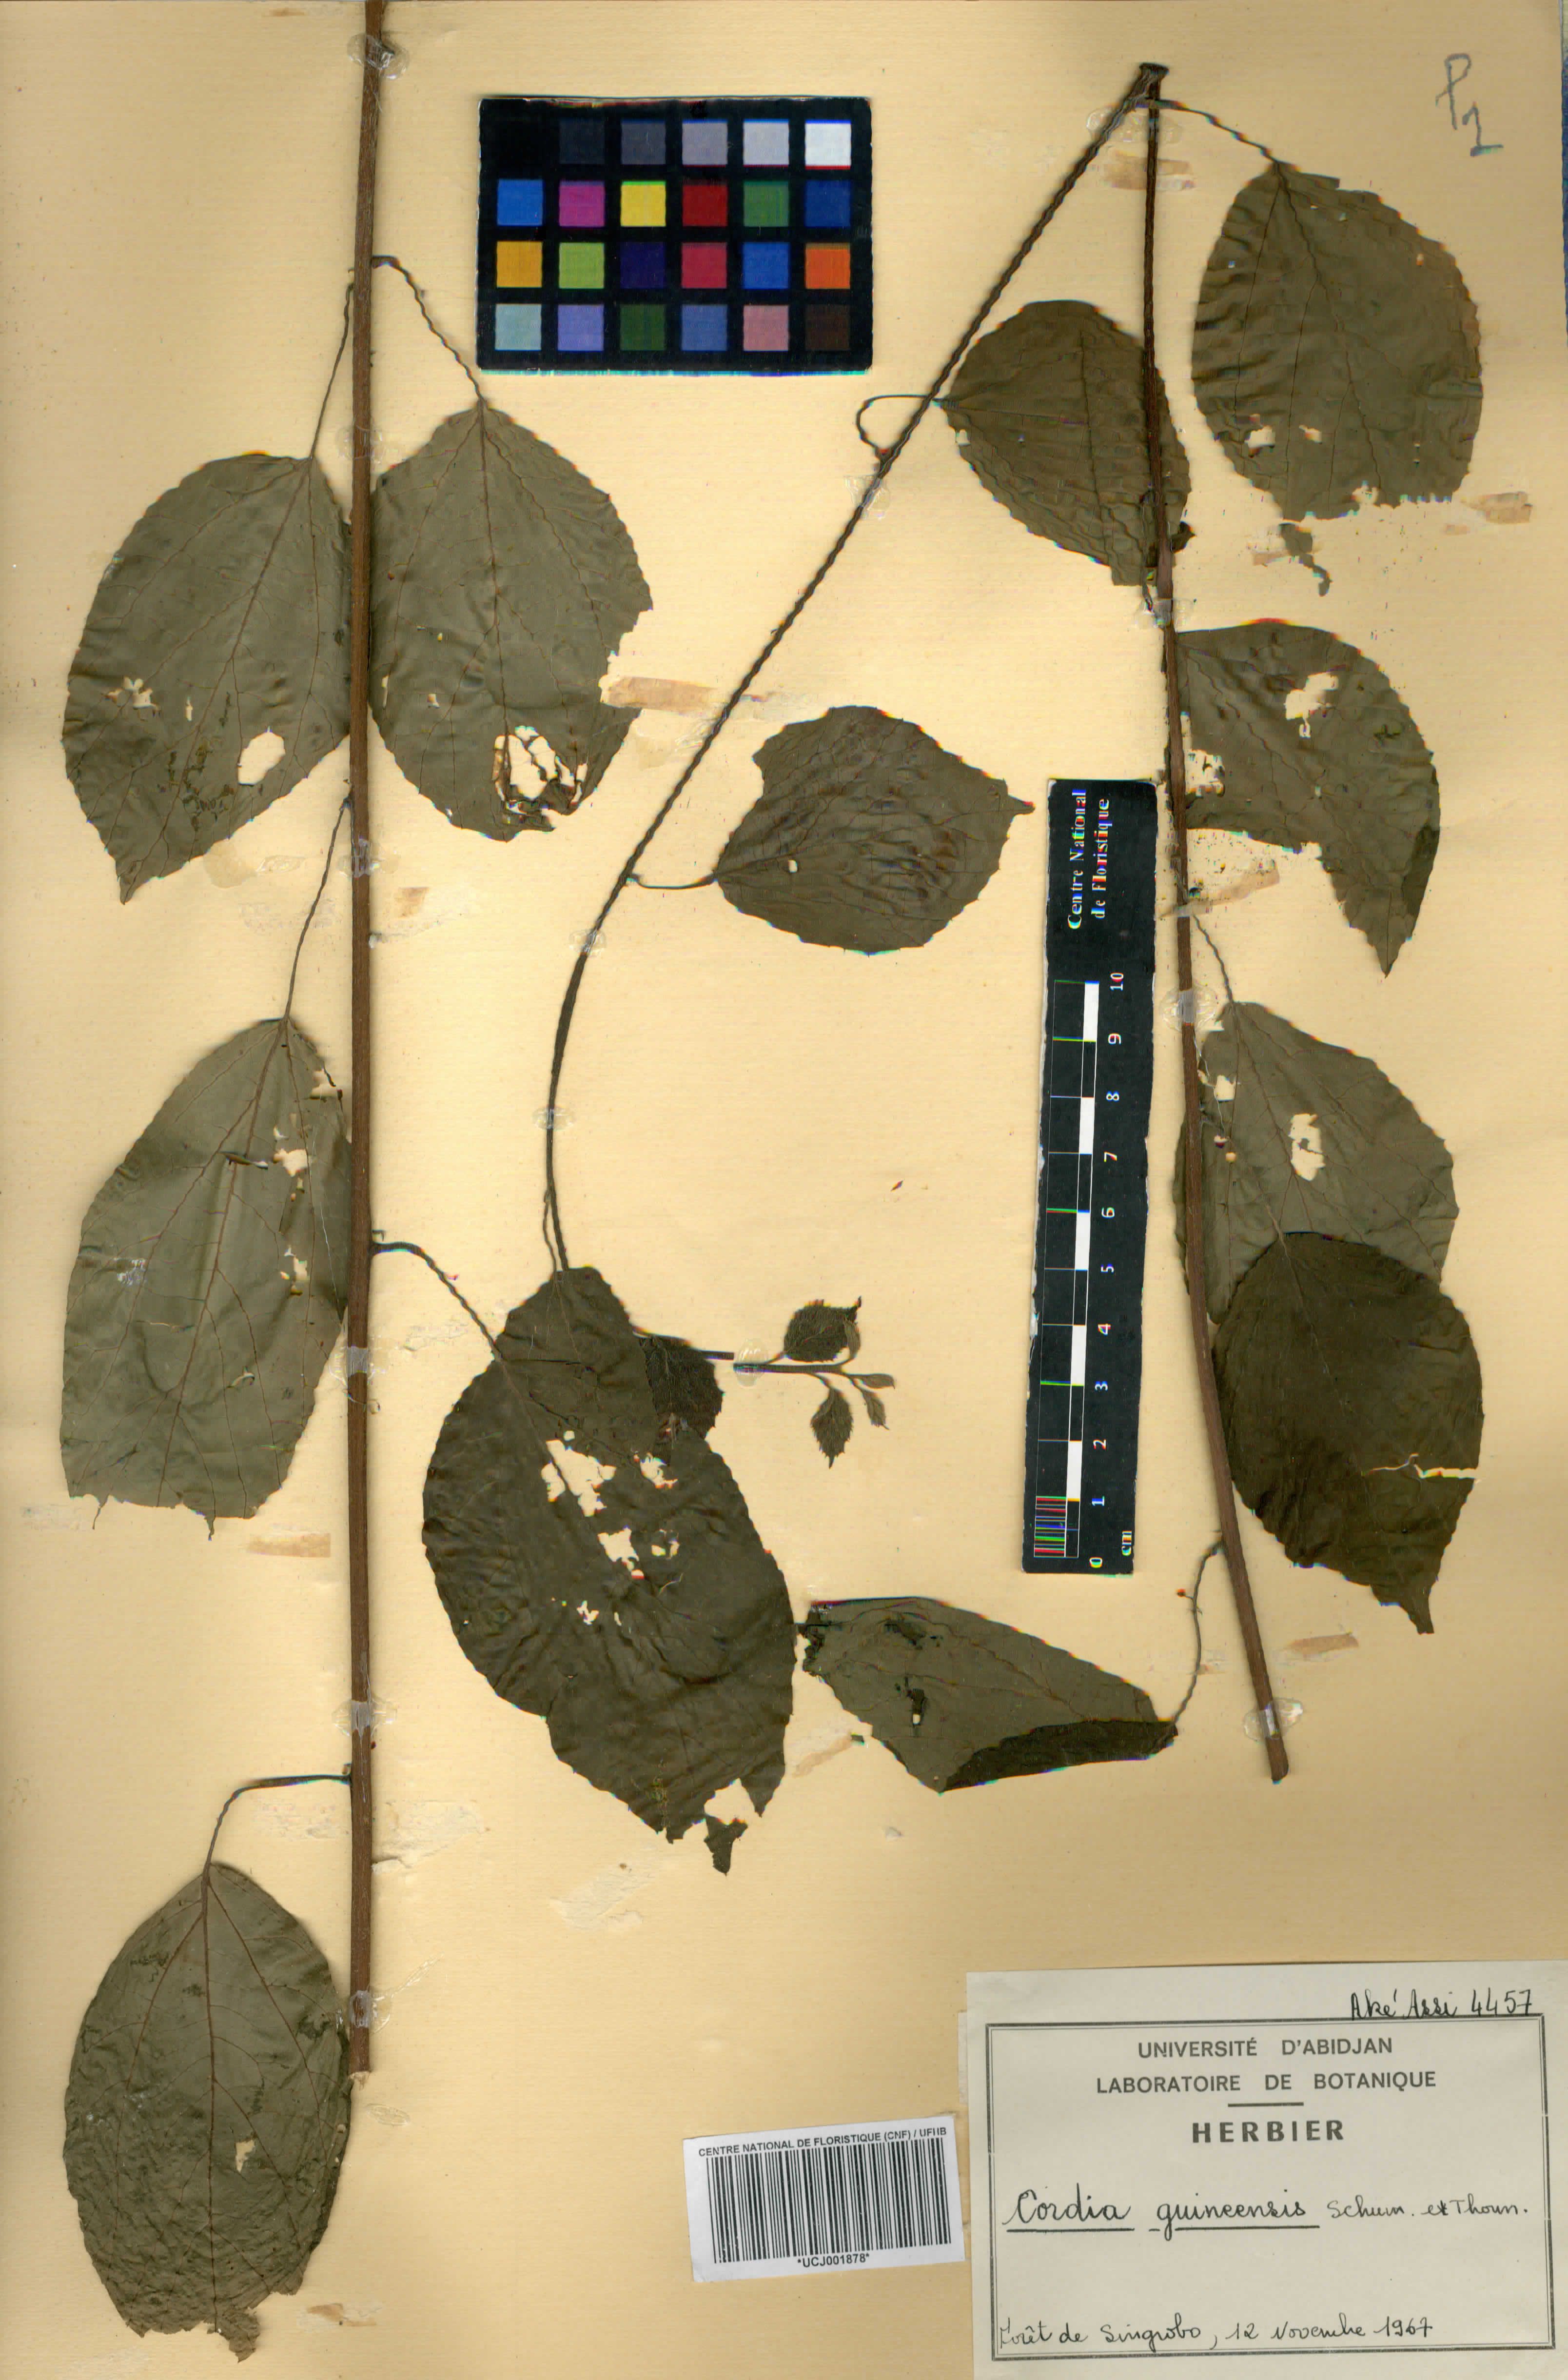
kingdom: Plantae
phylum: Tracheophyta
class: Magnoliopsida
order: Boraginales
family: Cordiaceae
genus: Cordia
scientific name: Cordia guineensis
